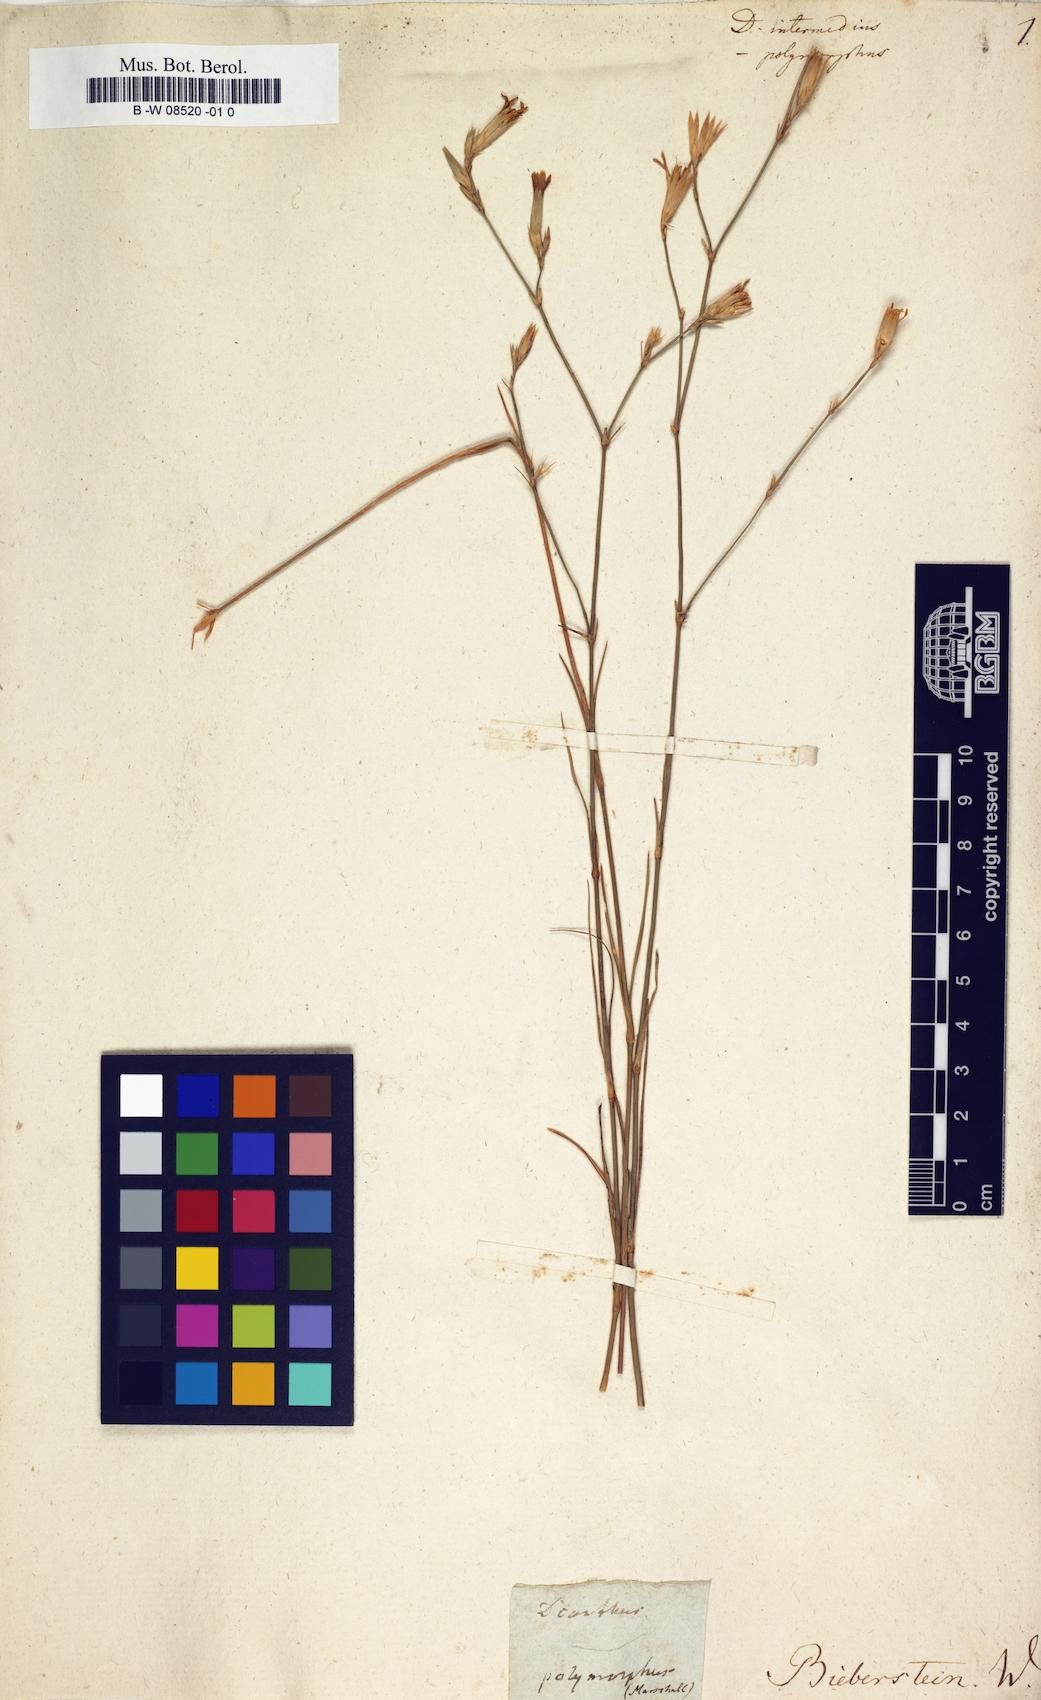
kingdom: Plantae
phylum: Tracheophyta
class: Magnoliopsida
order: Caryophyllales
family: Caryophyllaceae
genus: Dianthus
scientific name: Dianthus
